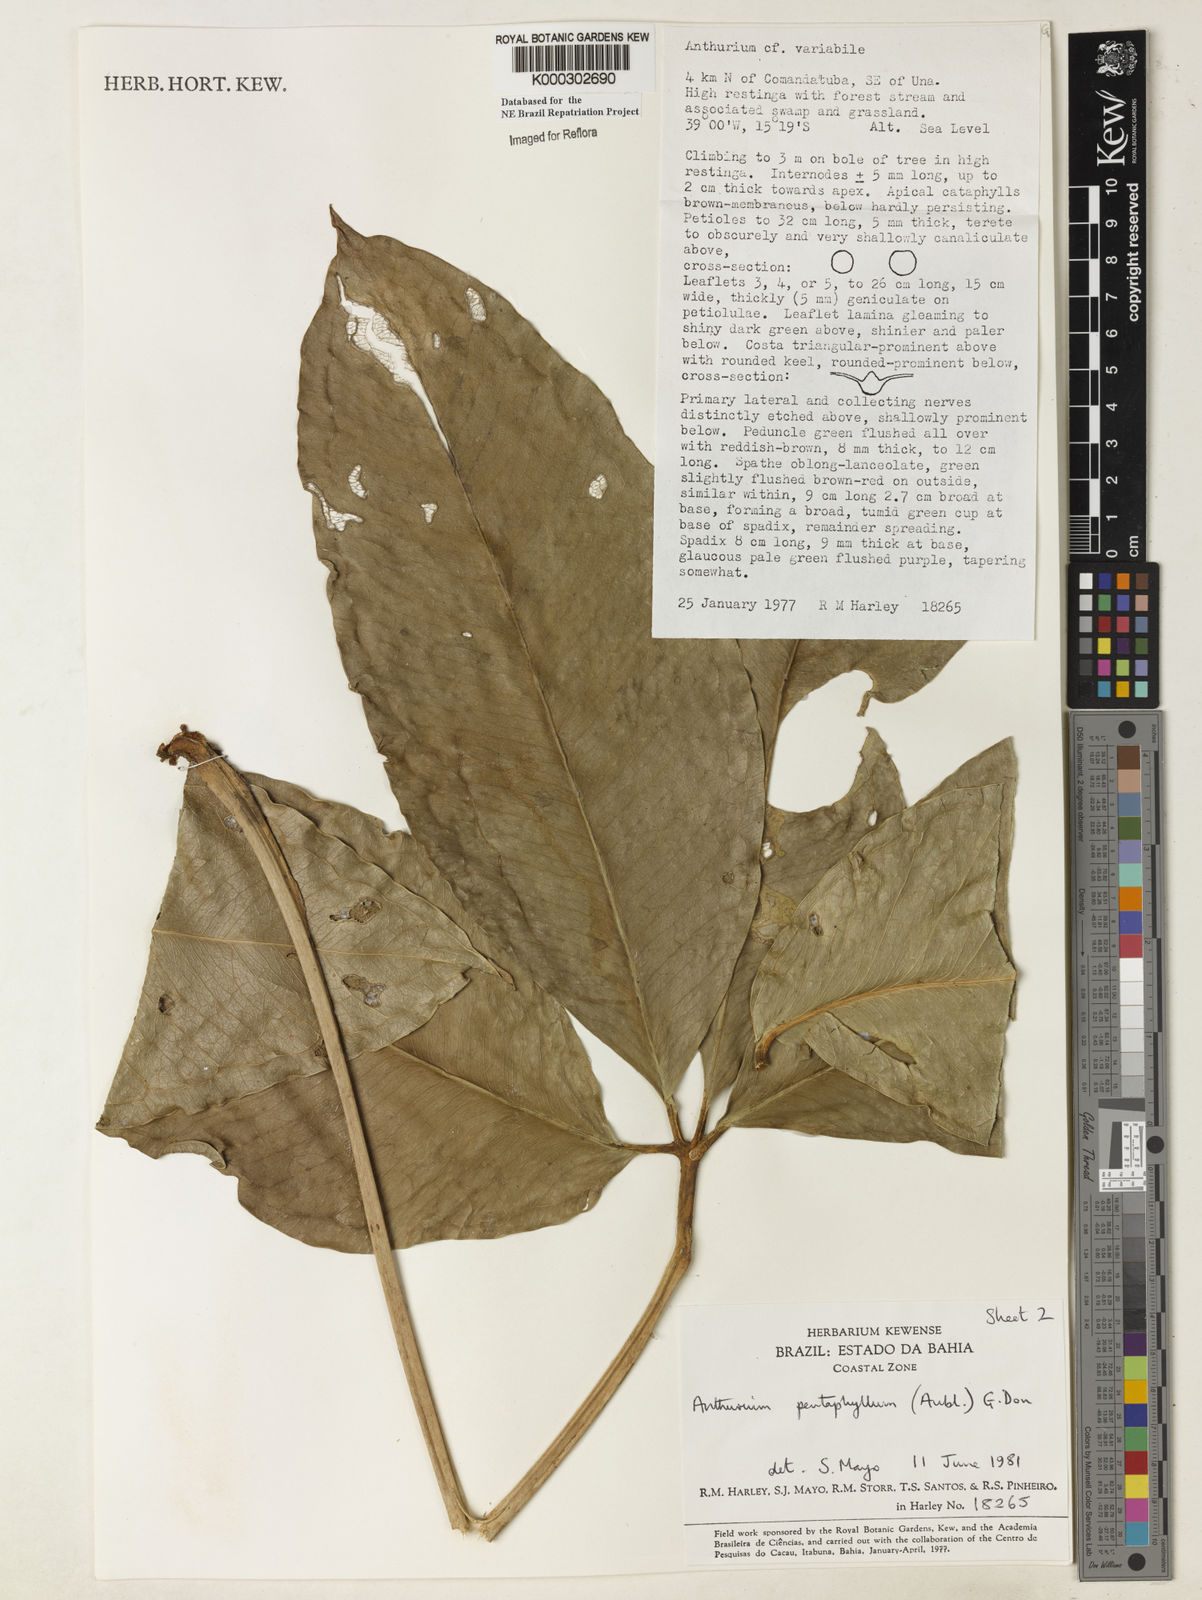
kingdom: Plantae
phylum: Tracheophyta
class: Liliopsida
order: Alismatales
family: Araceae
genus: Anthurium
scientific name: Anthurium pentaphyllum
